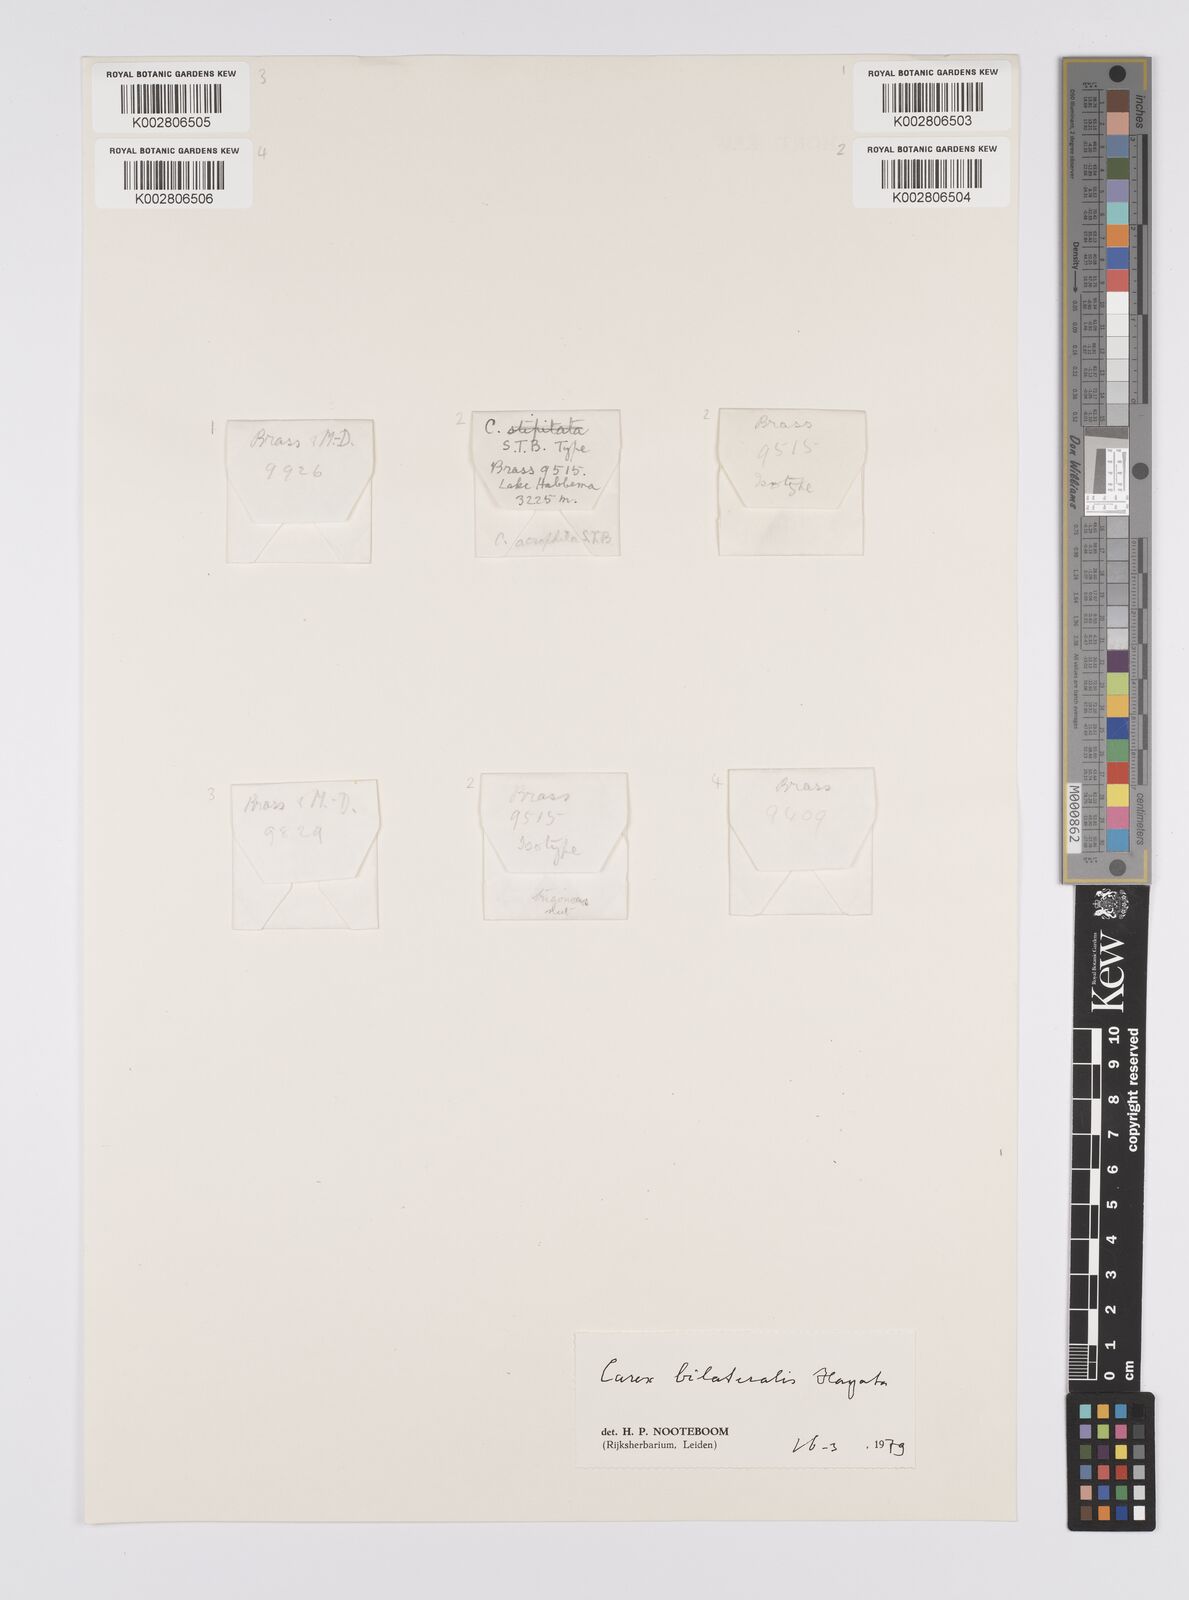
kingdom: Plantae
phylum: Tracheophyta
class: Liliopsida
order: Poales
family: Cyperaceae
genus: Carex
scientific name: Carex bilateralis
